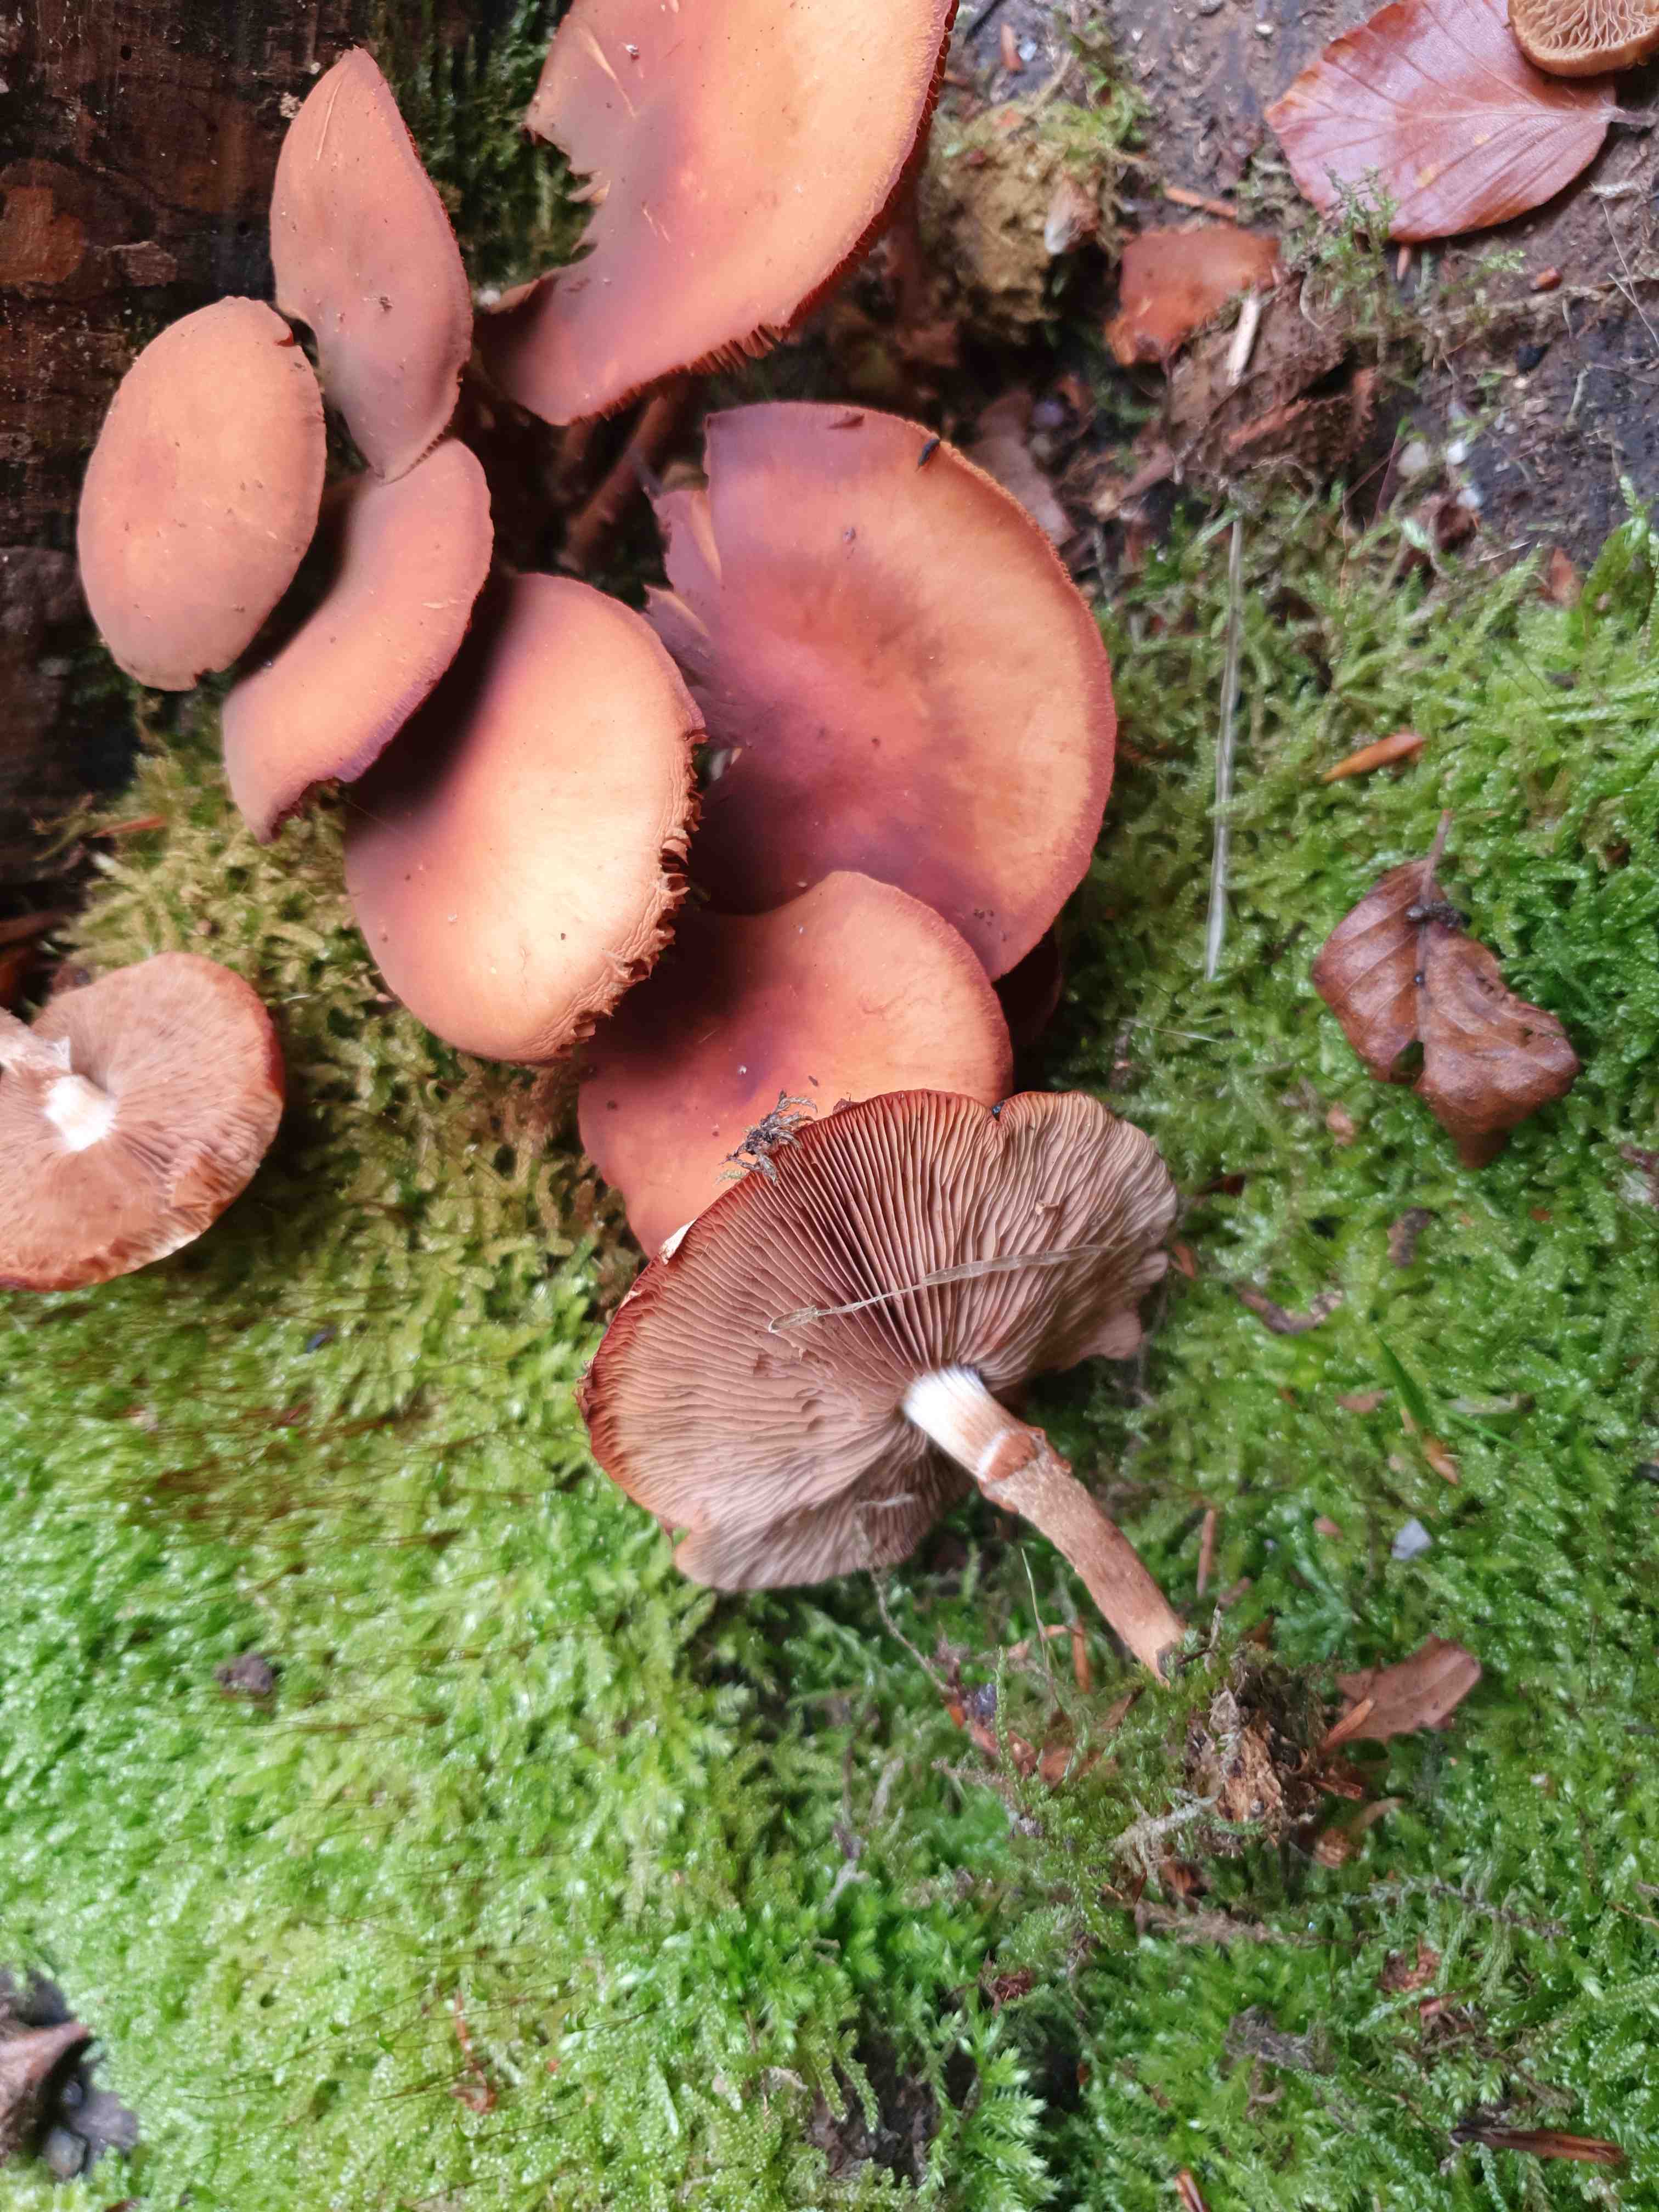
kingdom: Fungi
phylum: Basidiomycota
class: Agaricomycetes
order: Agaricales
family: Strophariaceae
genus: Kuehneromyces
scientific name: Kuehneromyces mutabilis
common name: foranderlig skælhat
